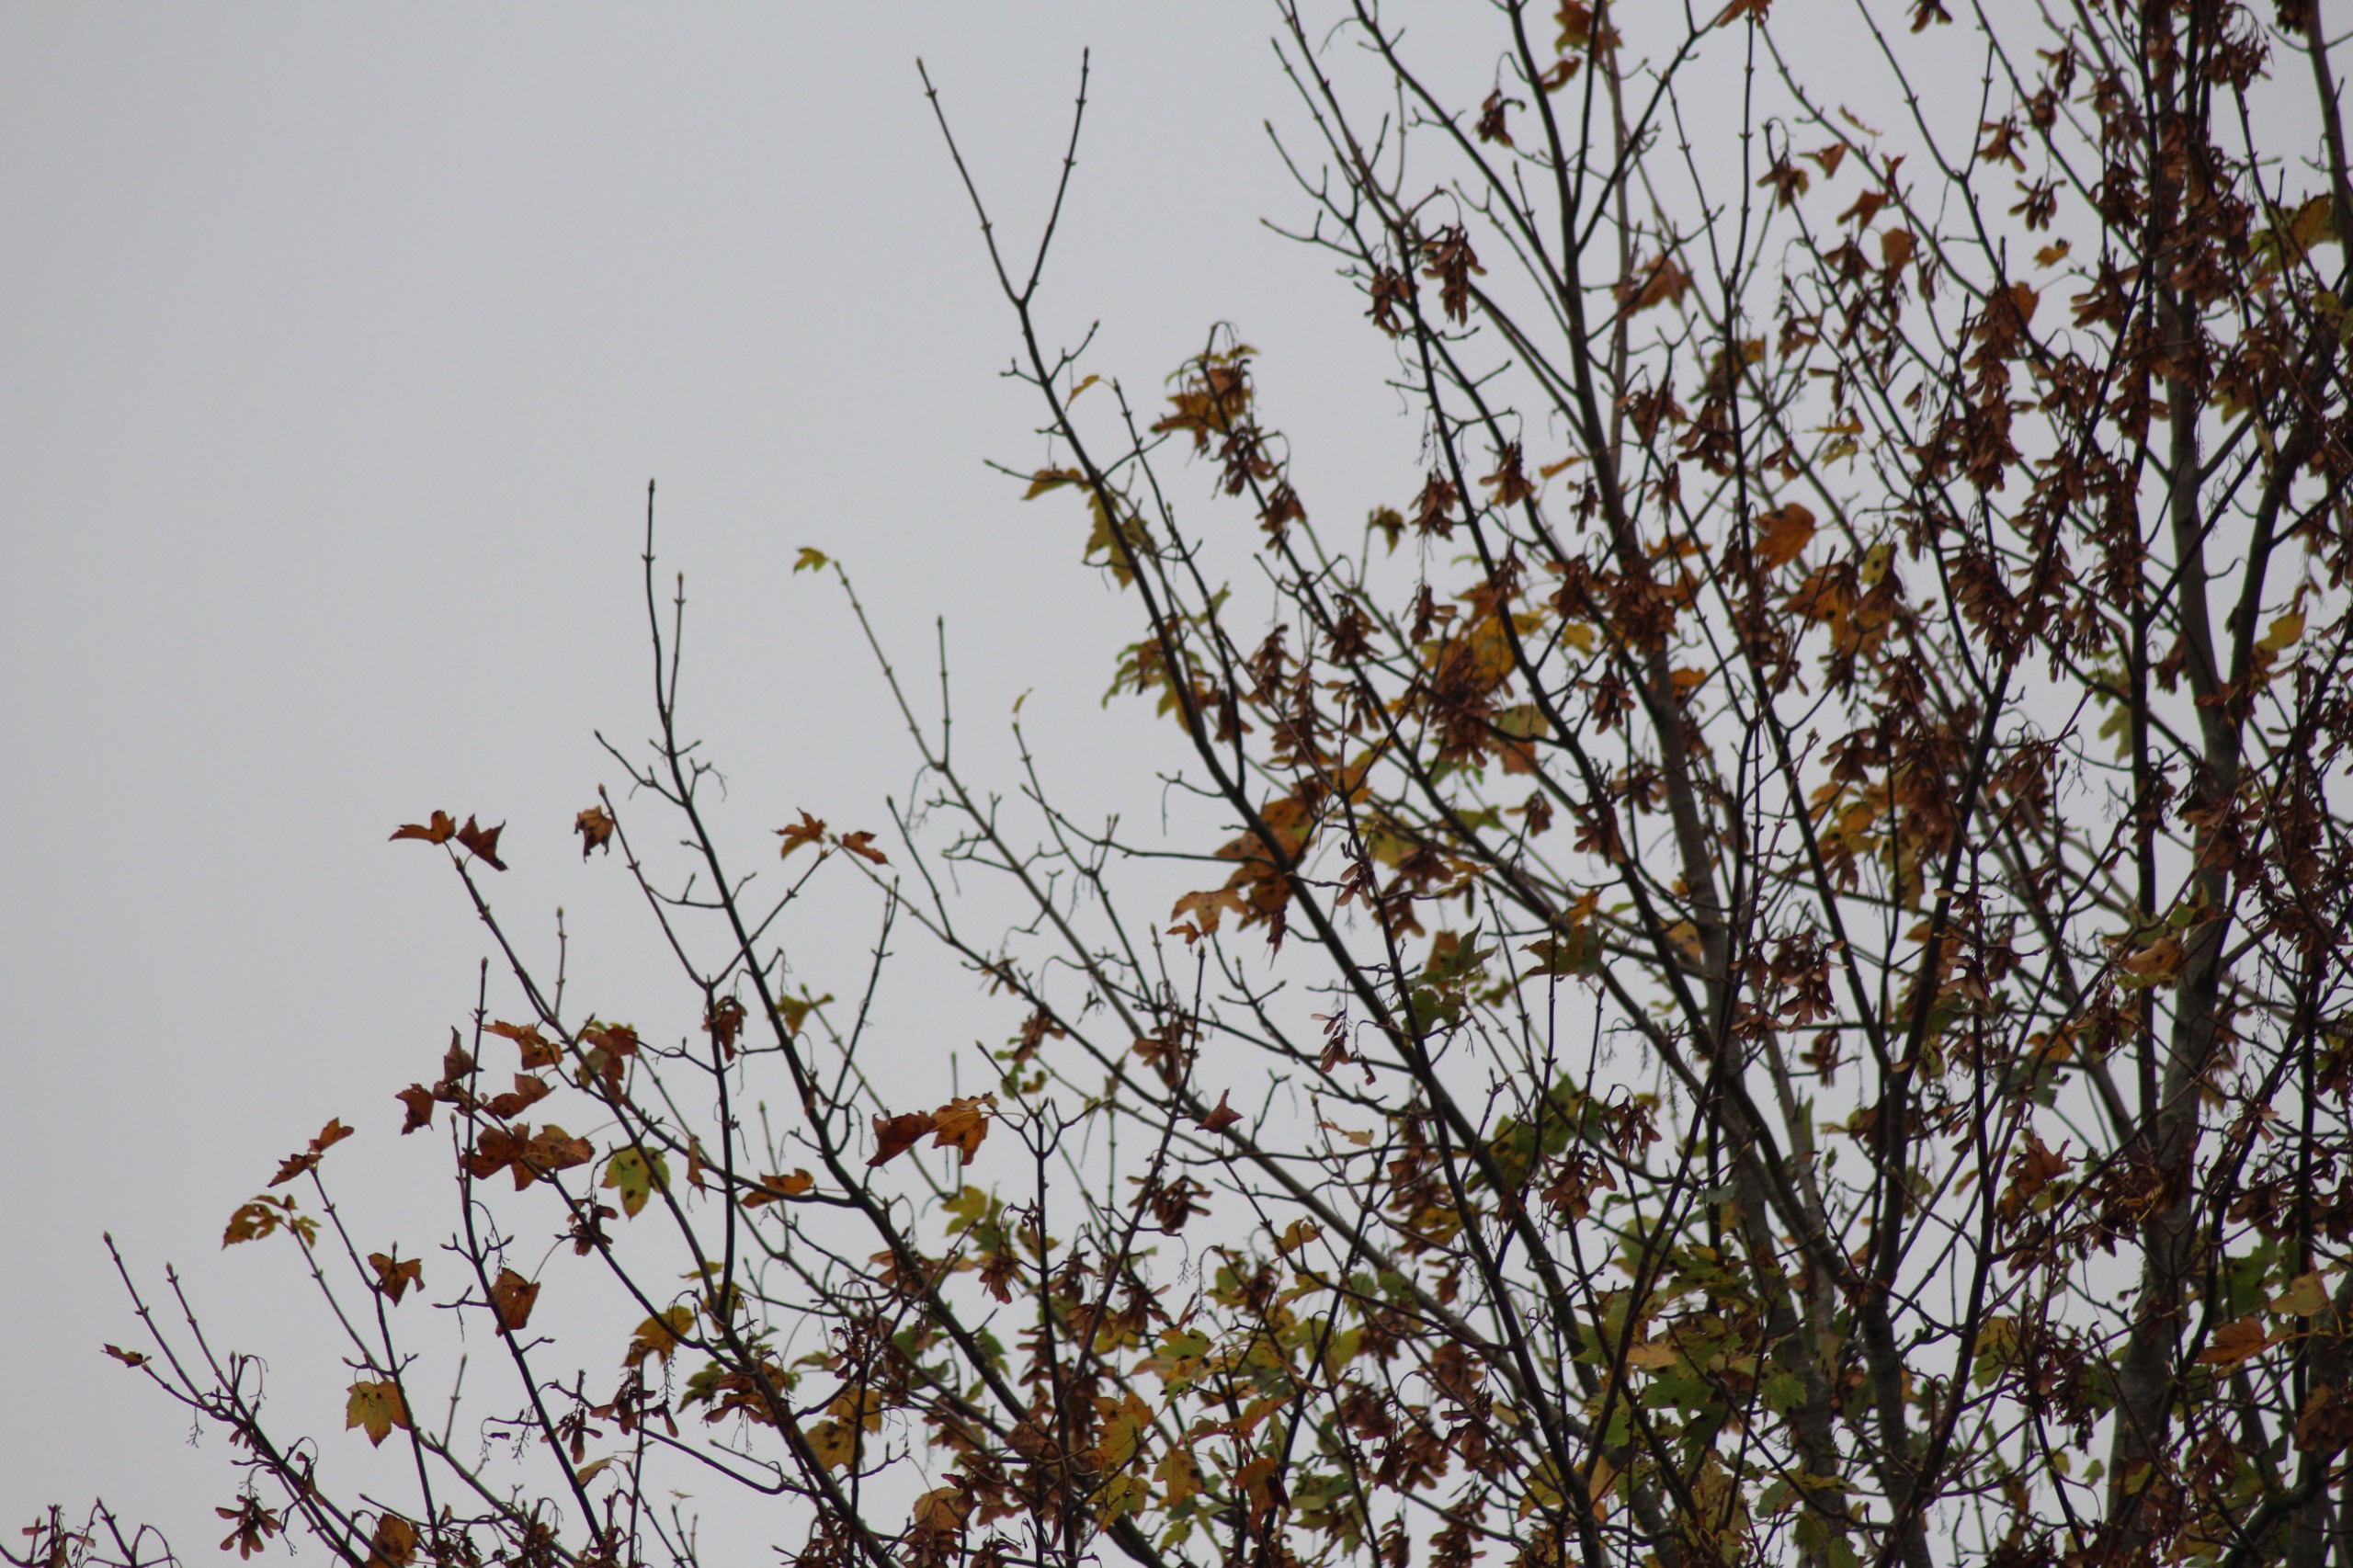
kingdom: Animalia
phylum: Chordata
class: Aves
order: Passeriformes
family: Emberizidae
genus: Emberiza
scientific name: Emberiza citrinella
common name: Gulspurv
